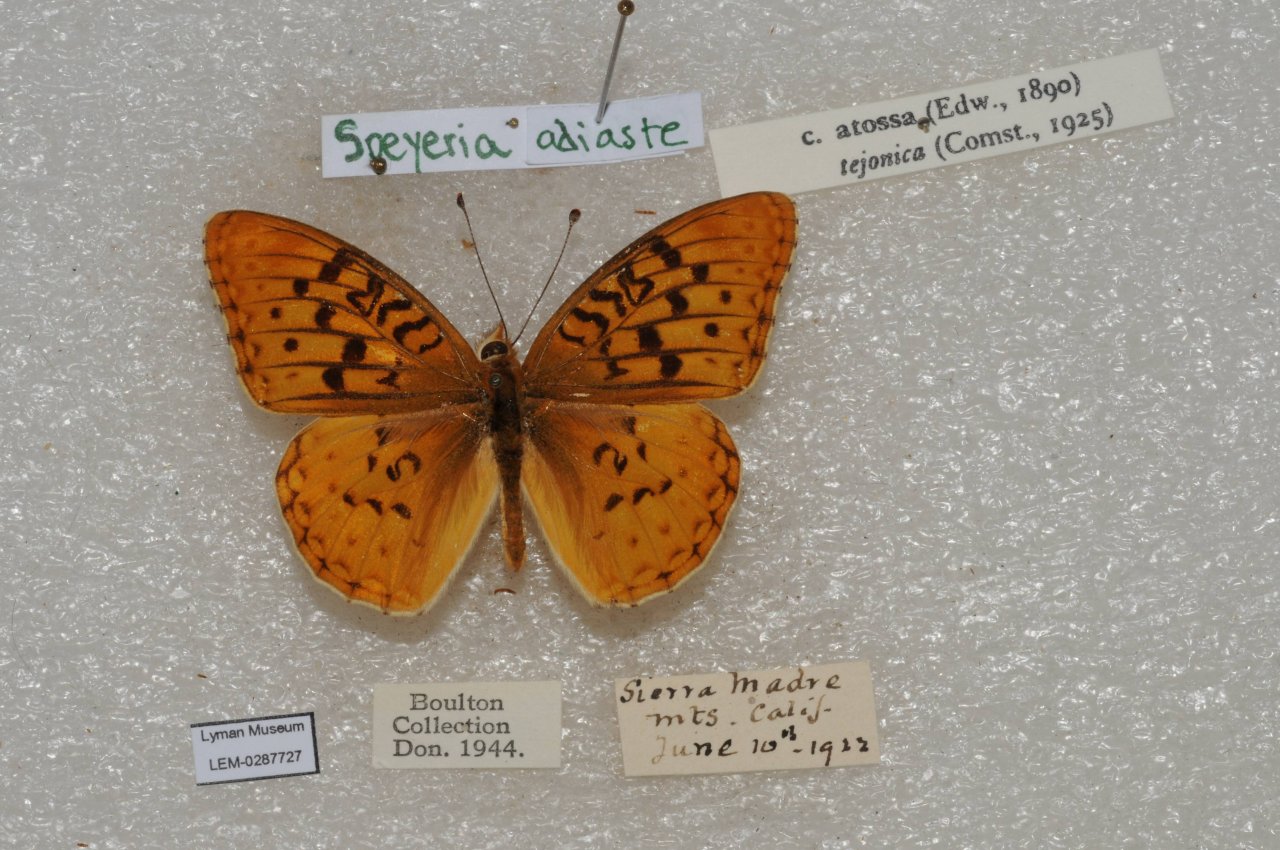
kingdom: Animalia
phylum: Arthropoda
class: Insecta
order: Lepidoptera
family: Nymphalidae
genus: Speyeria
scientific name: Speyeria adiaste
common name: Unsilvered Fritillary
